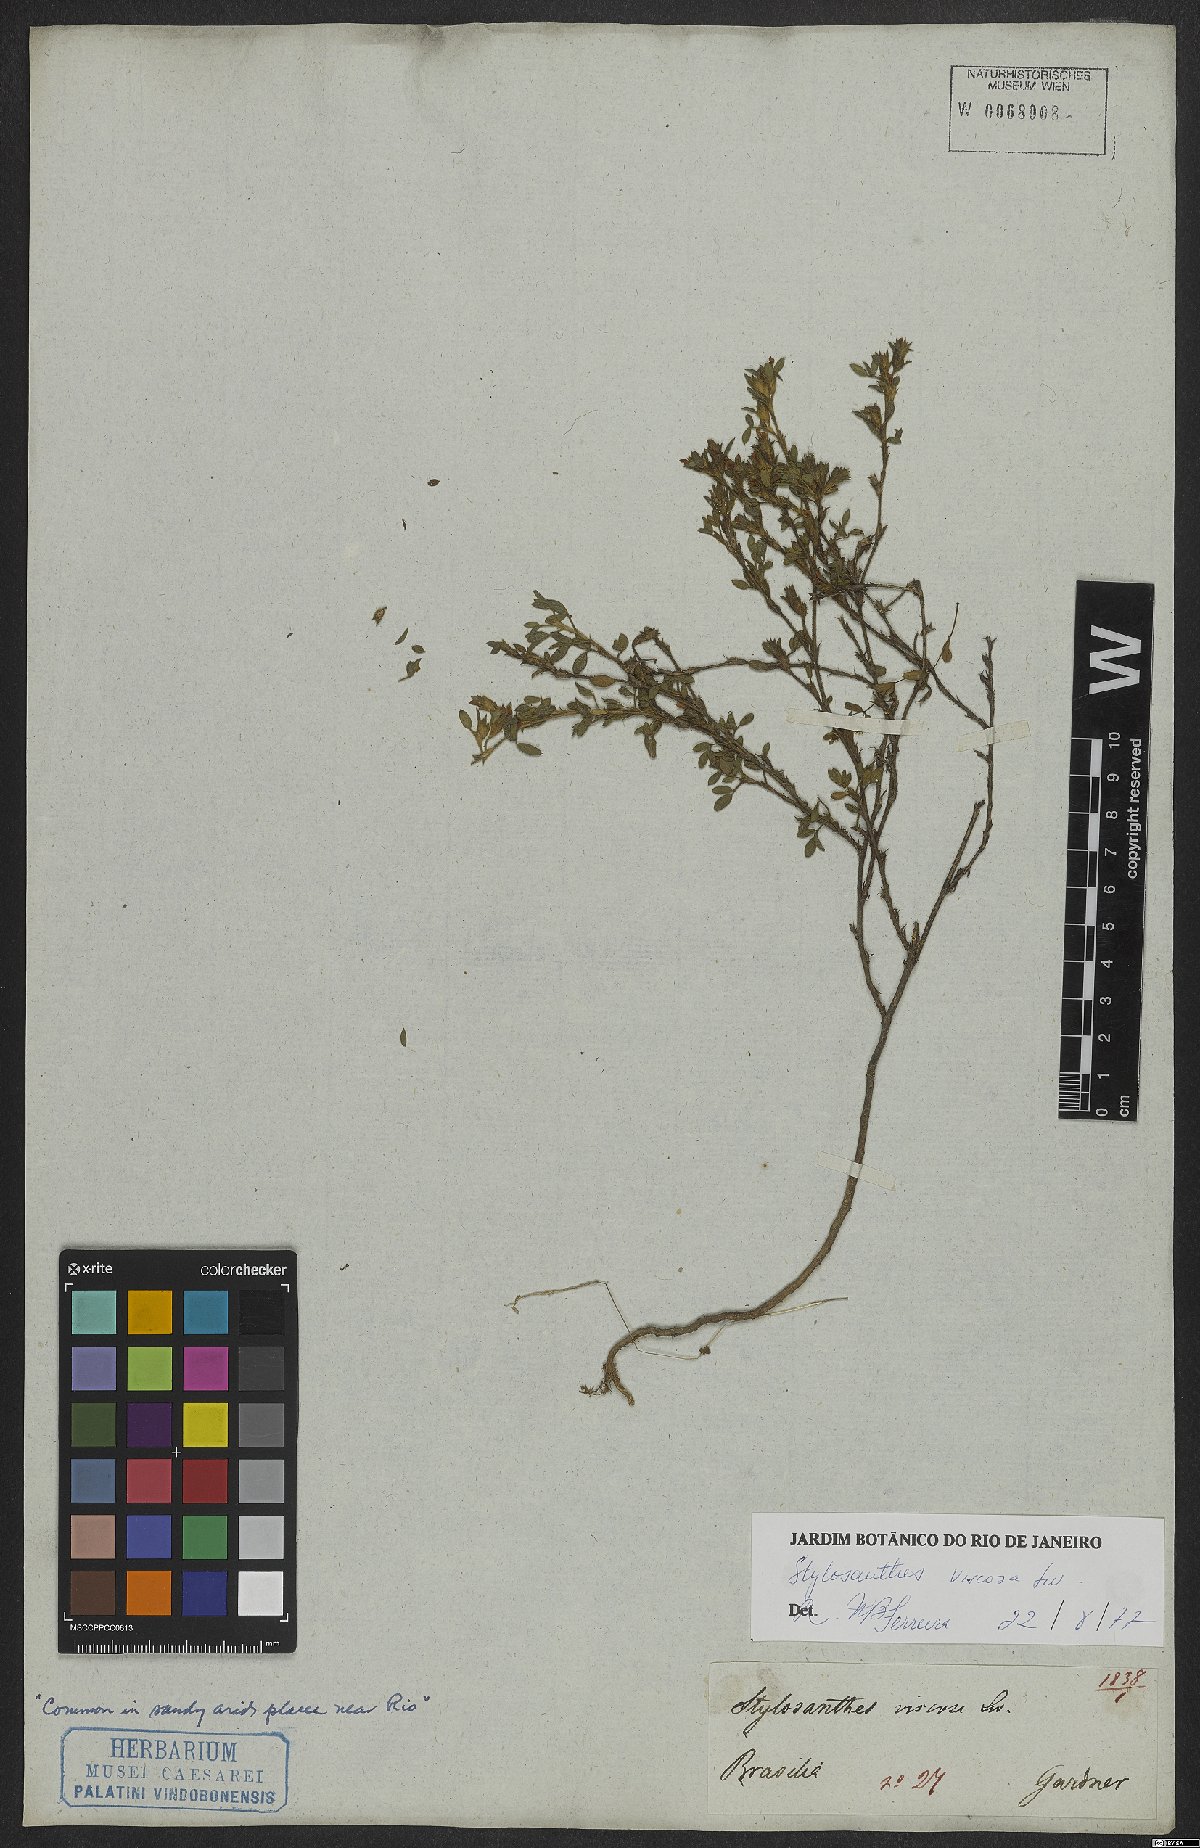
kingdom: Plantae
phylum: Tracheophyta
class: Magnoliopsida
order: Fabales
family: Fabaceae
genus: Stylosanthes
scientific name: Stylosanthes viscosa
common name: Viscid pencil-flower
